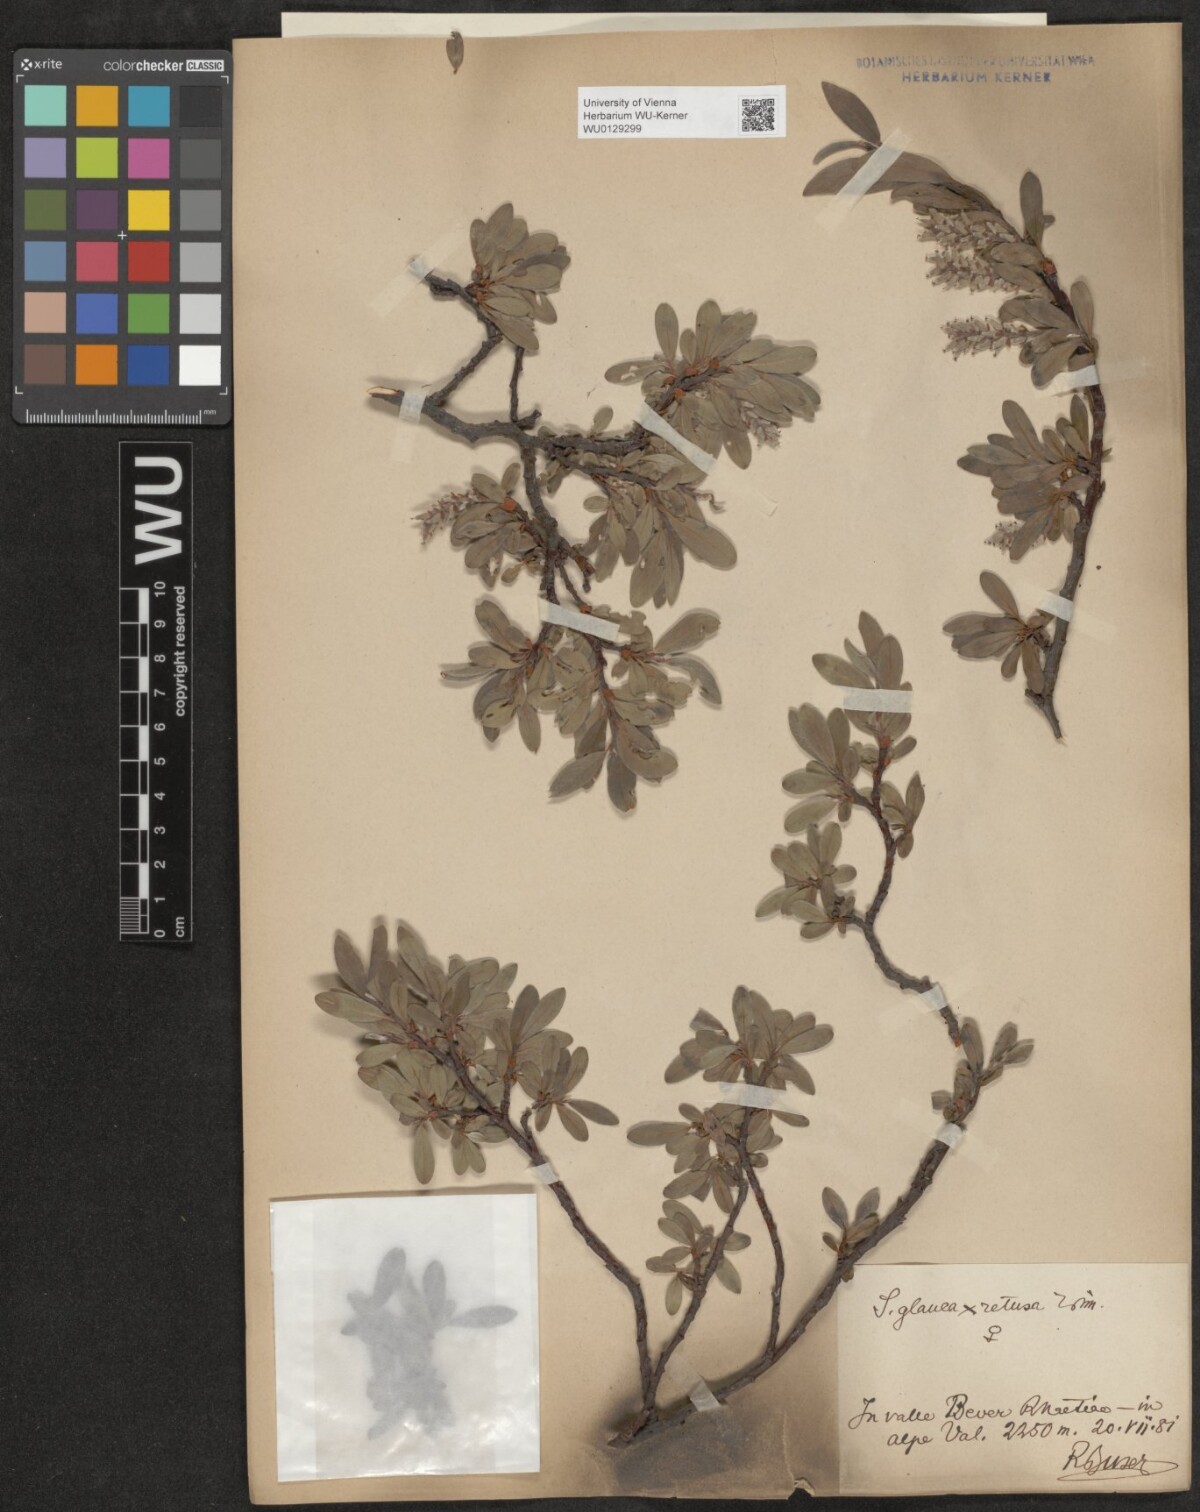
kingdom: Plantae
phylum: Tracheophyta
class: Magnoliopsida
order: Malpighiales
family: Salicaceae
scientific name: Salicaceae
